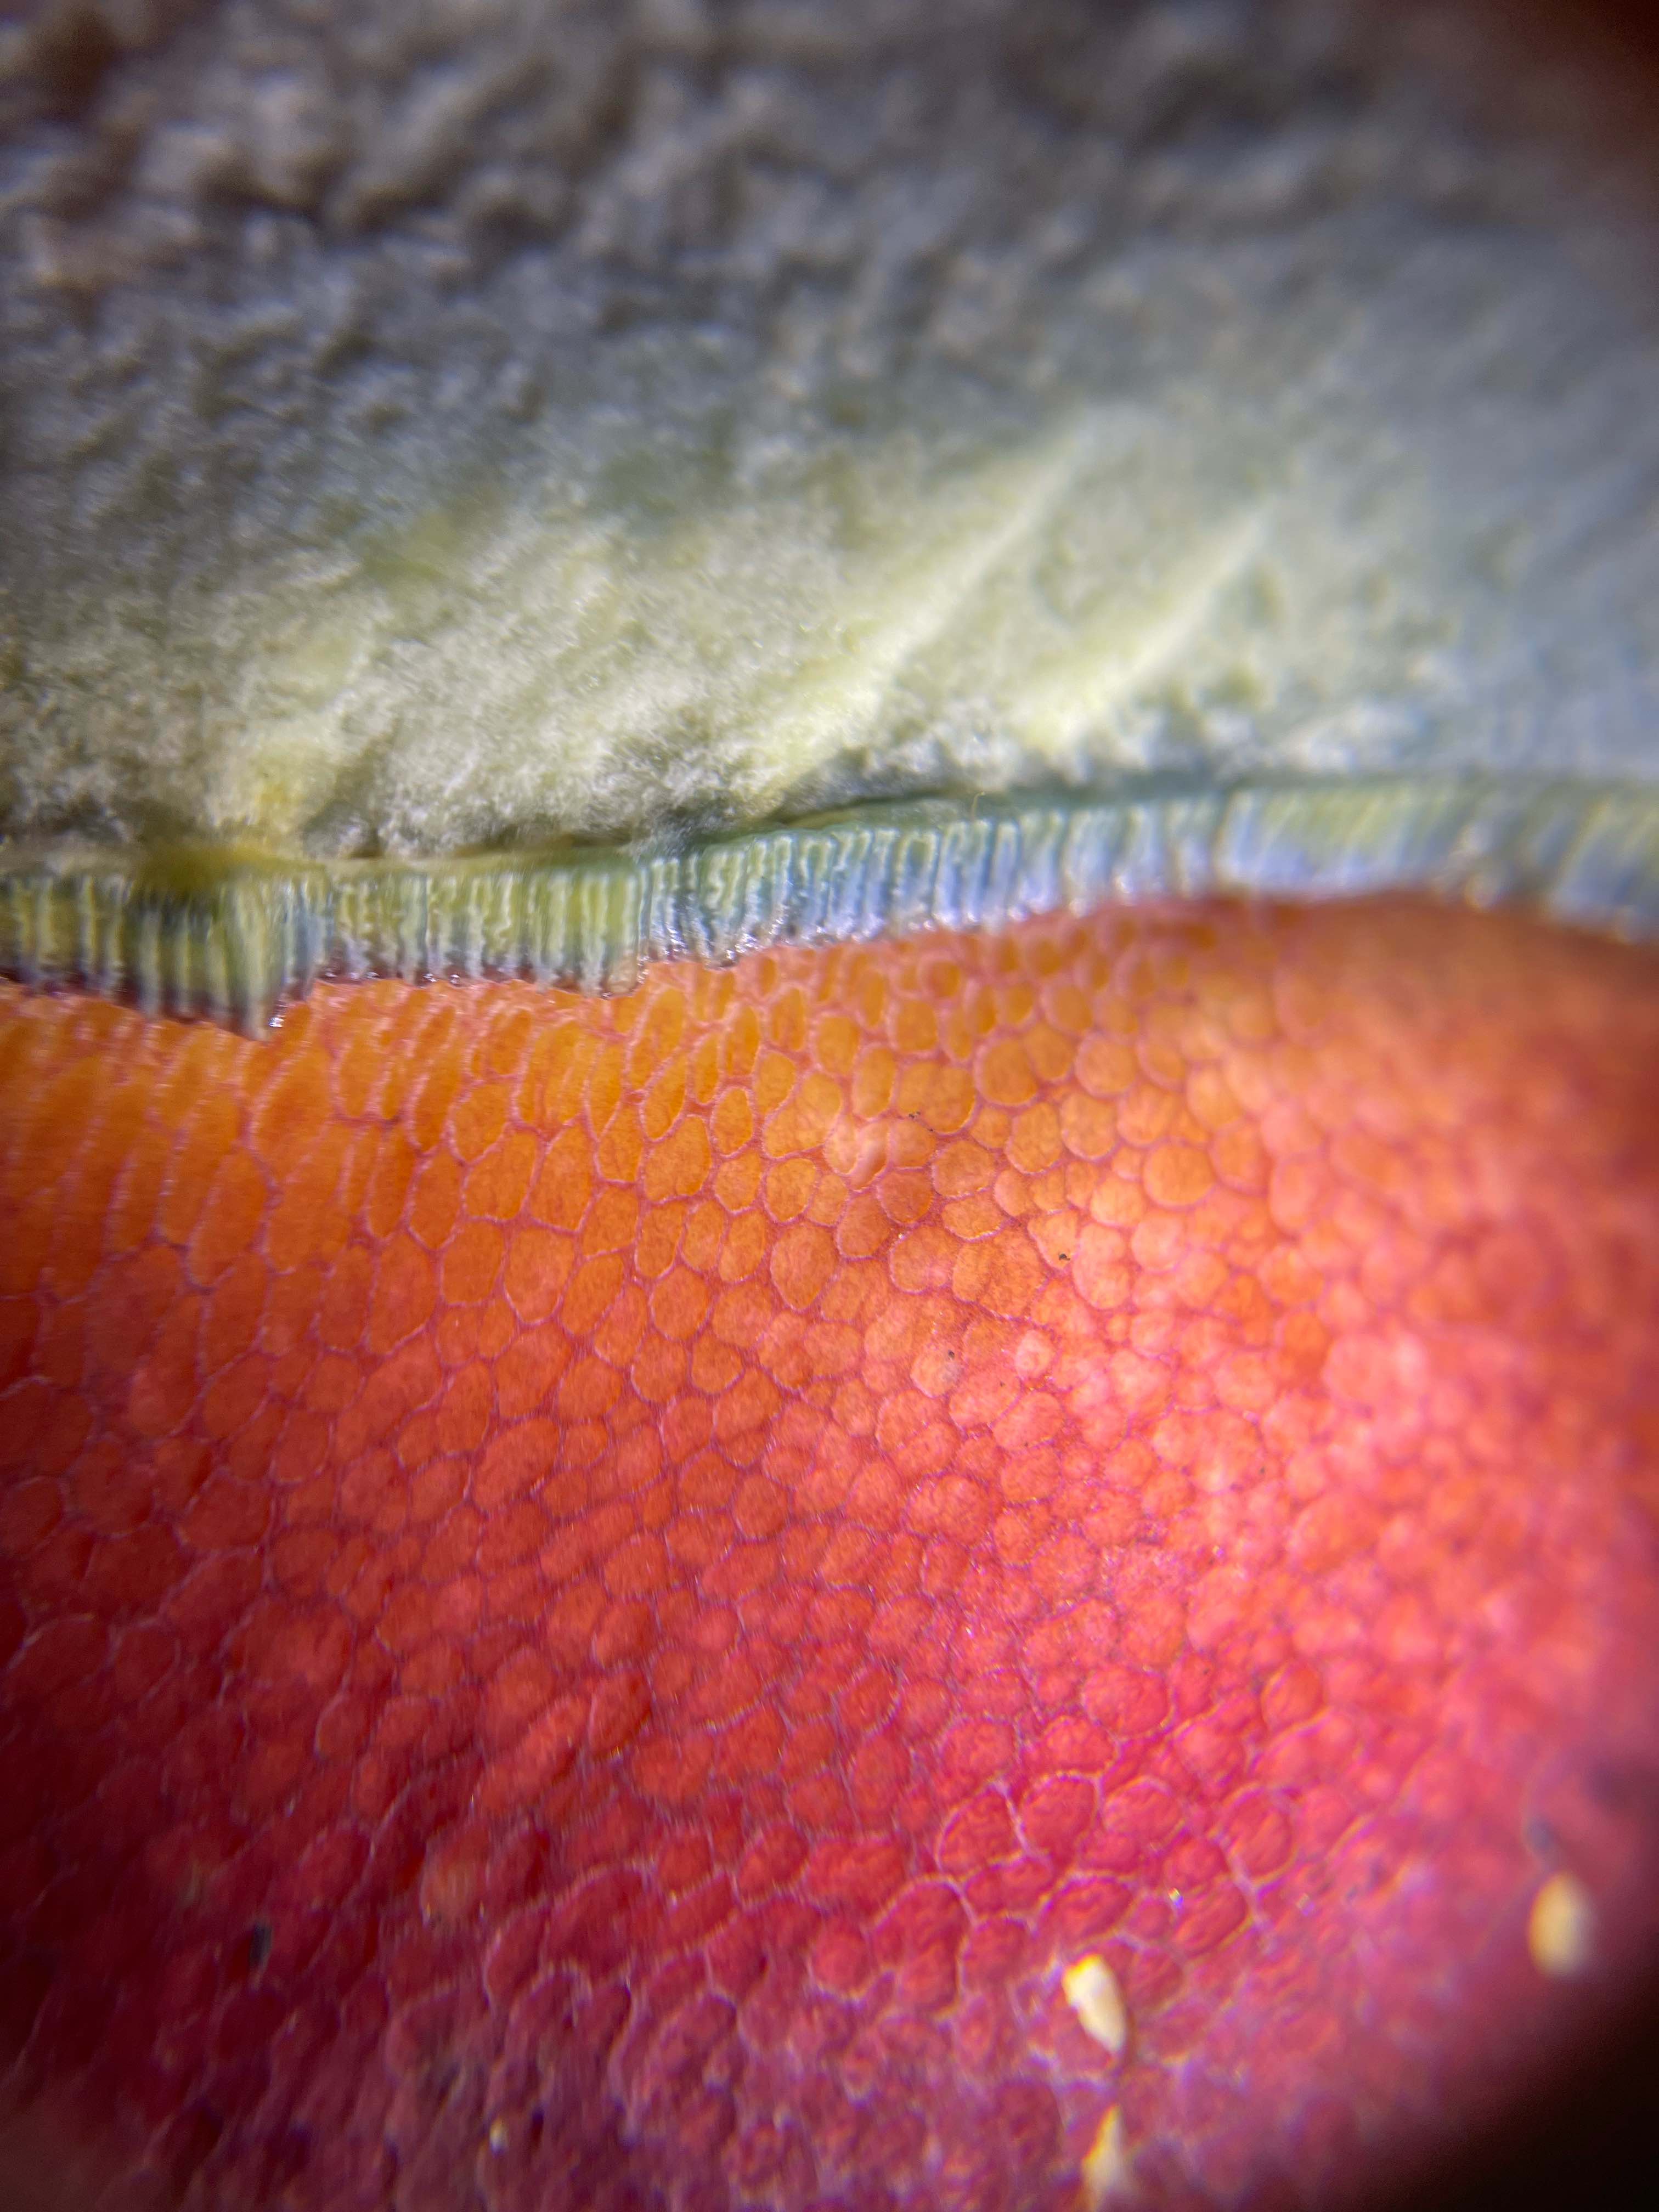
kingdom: Fungi
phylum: Basidiomycota
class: Agaricomycetes
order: Boletales
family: Boletaceae
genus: Rubroboletus
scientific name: Rubroboletus satanas
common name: Satans rørhat
